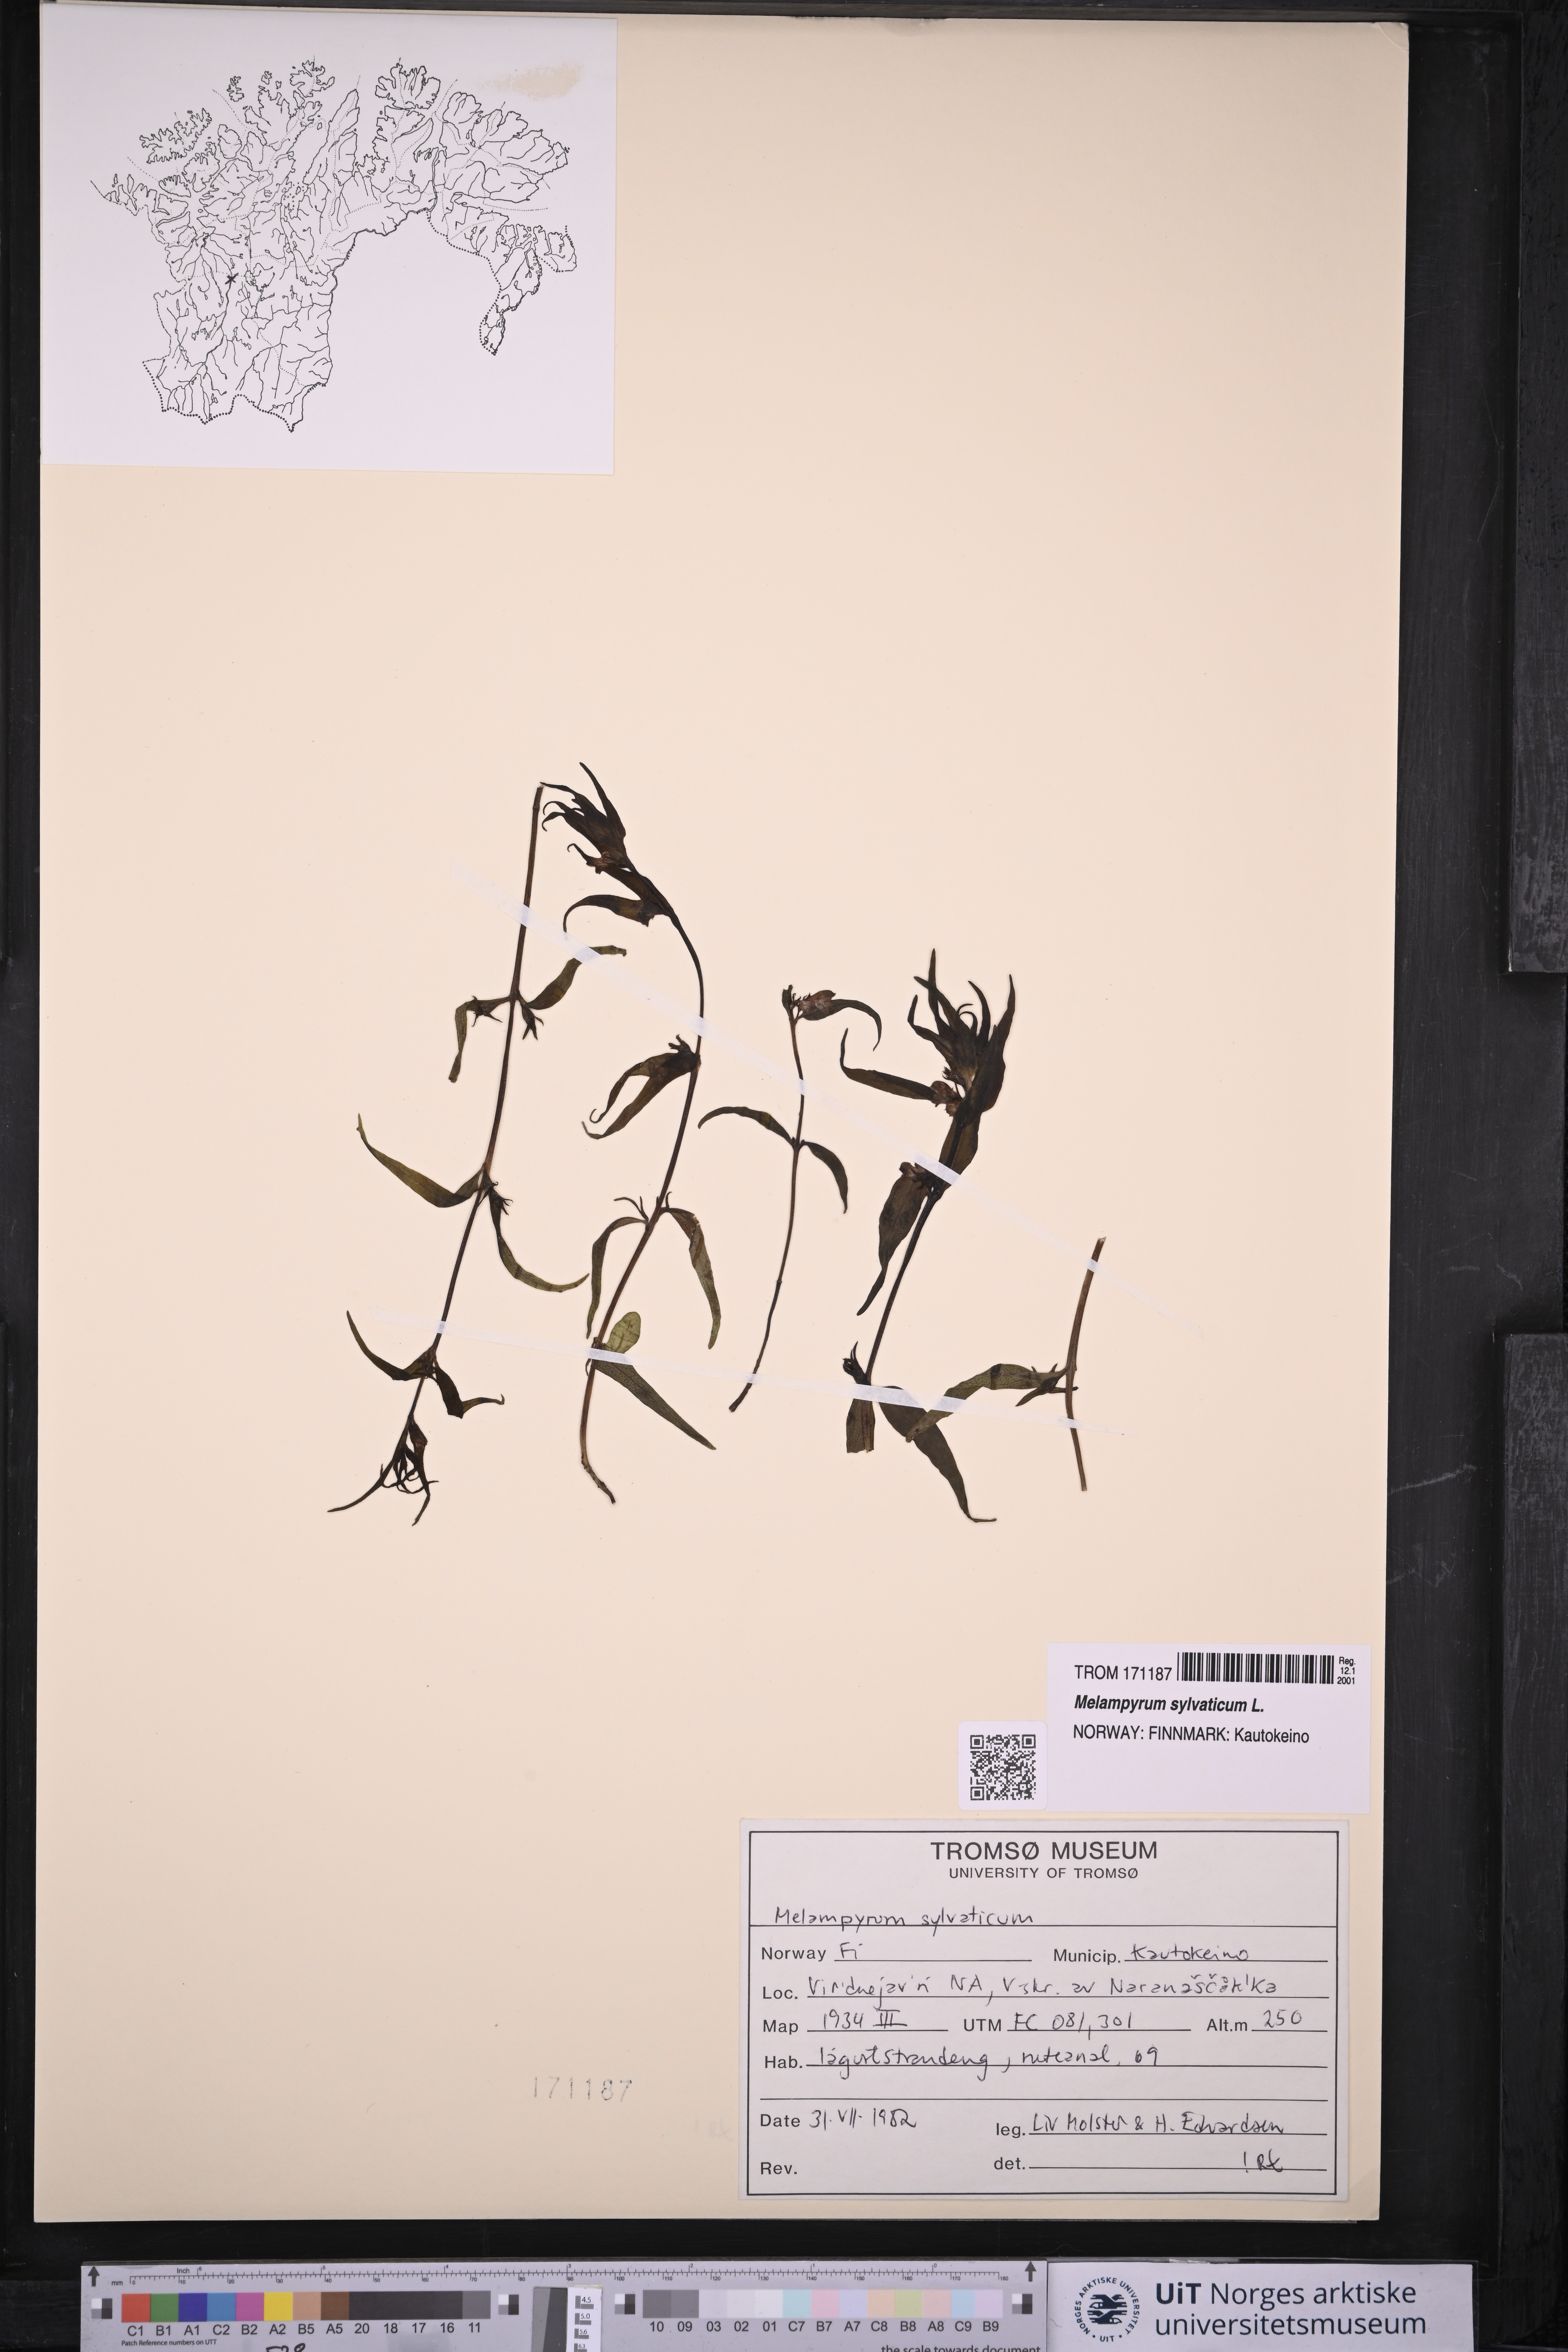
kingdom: Plantae
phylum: Tracheophyta
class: Magnoliopsida
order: Lamiales
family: Orobanchaceae
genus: Melampyrum
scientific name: Melampyrum sylvaticum
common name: Small cow-wheat
